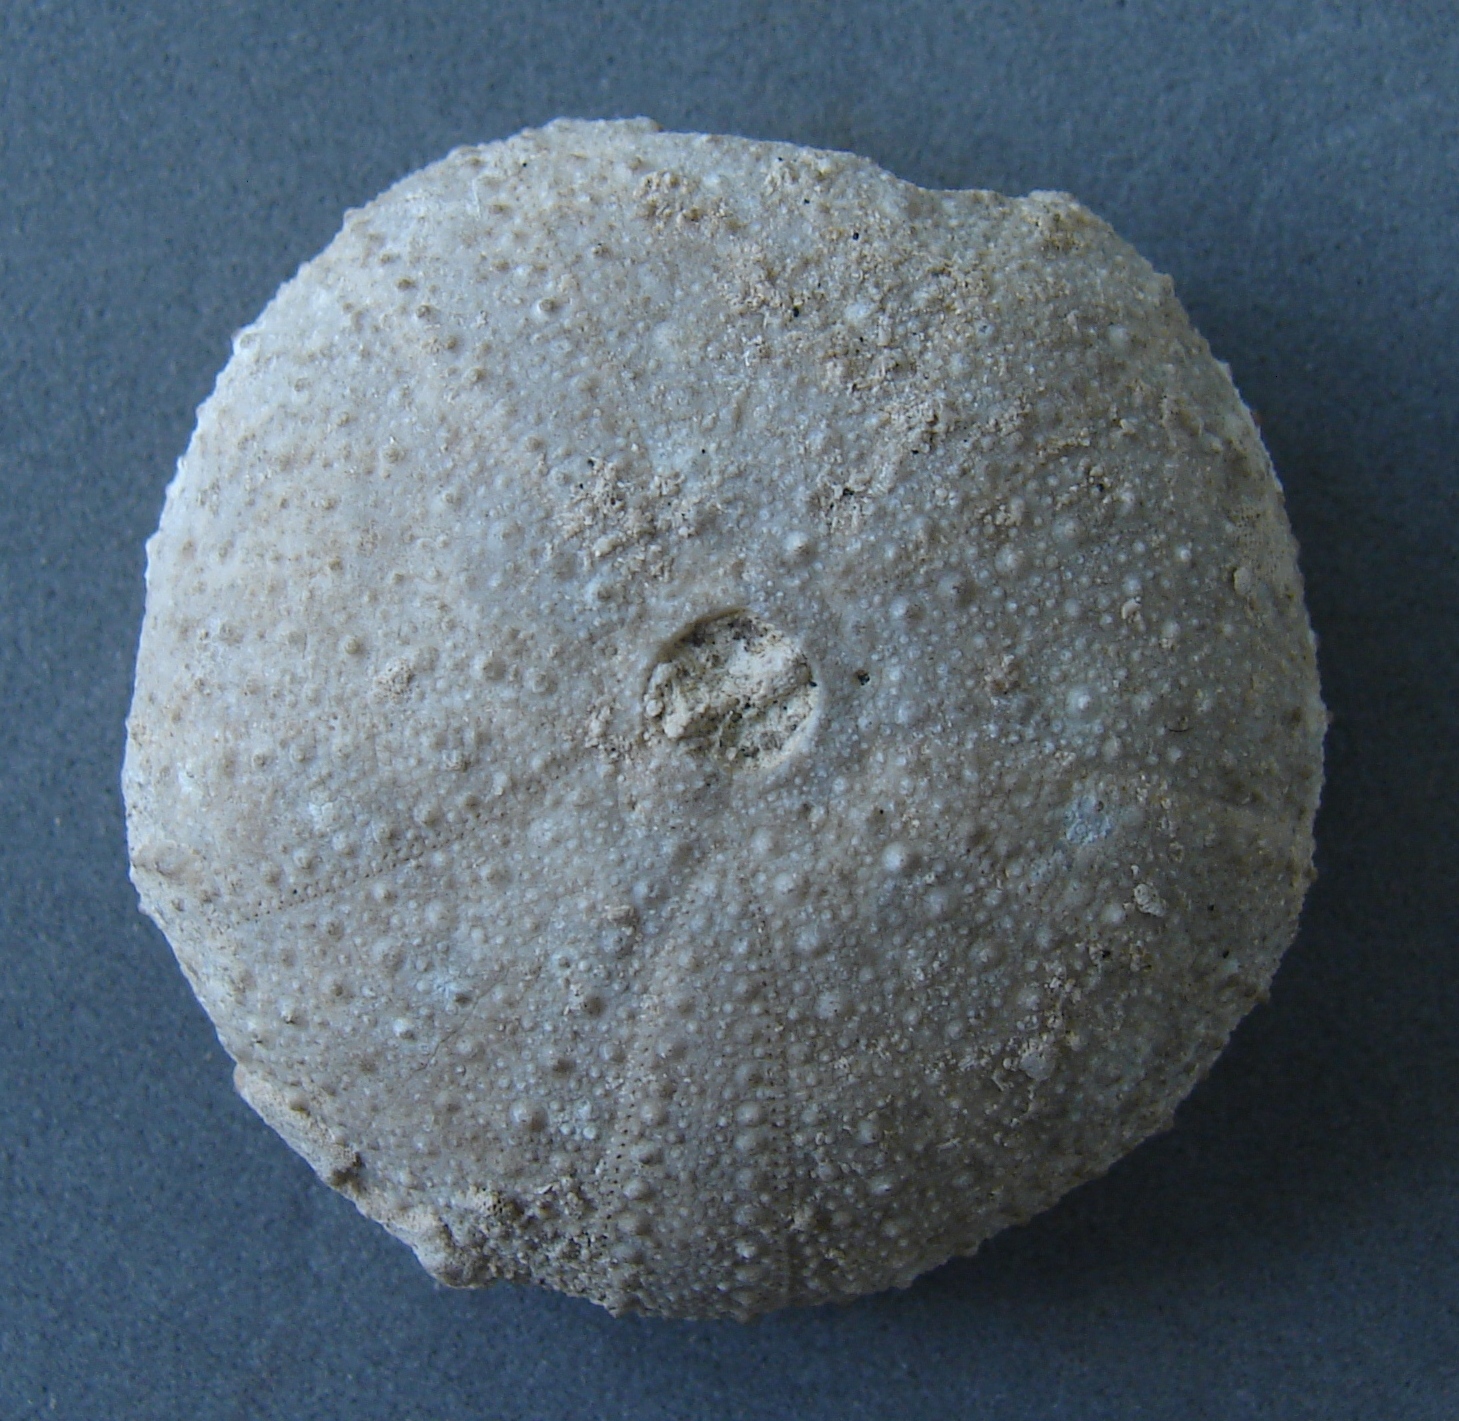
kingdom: Animalia
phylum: Echinodermata
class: Echinoidea
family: Orthopsidae
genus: Orthopsis
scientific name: Orthopsis Cidarites miliaris
